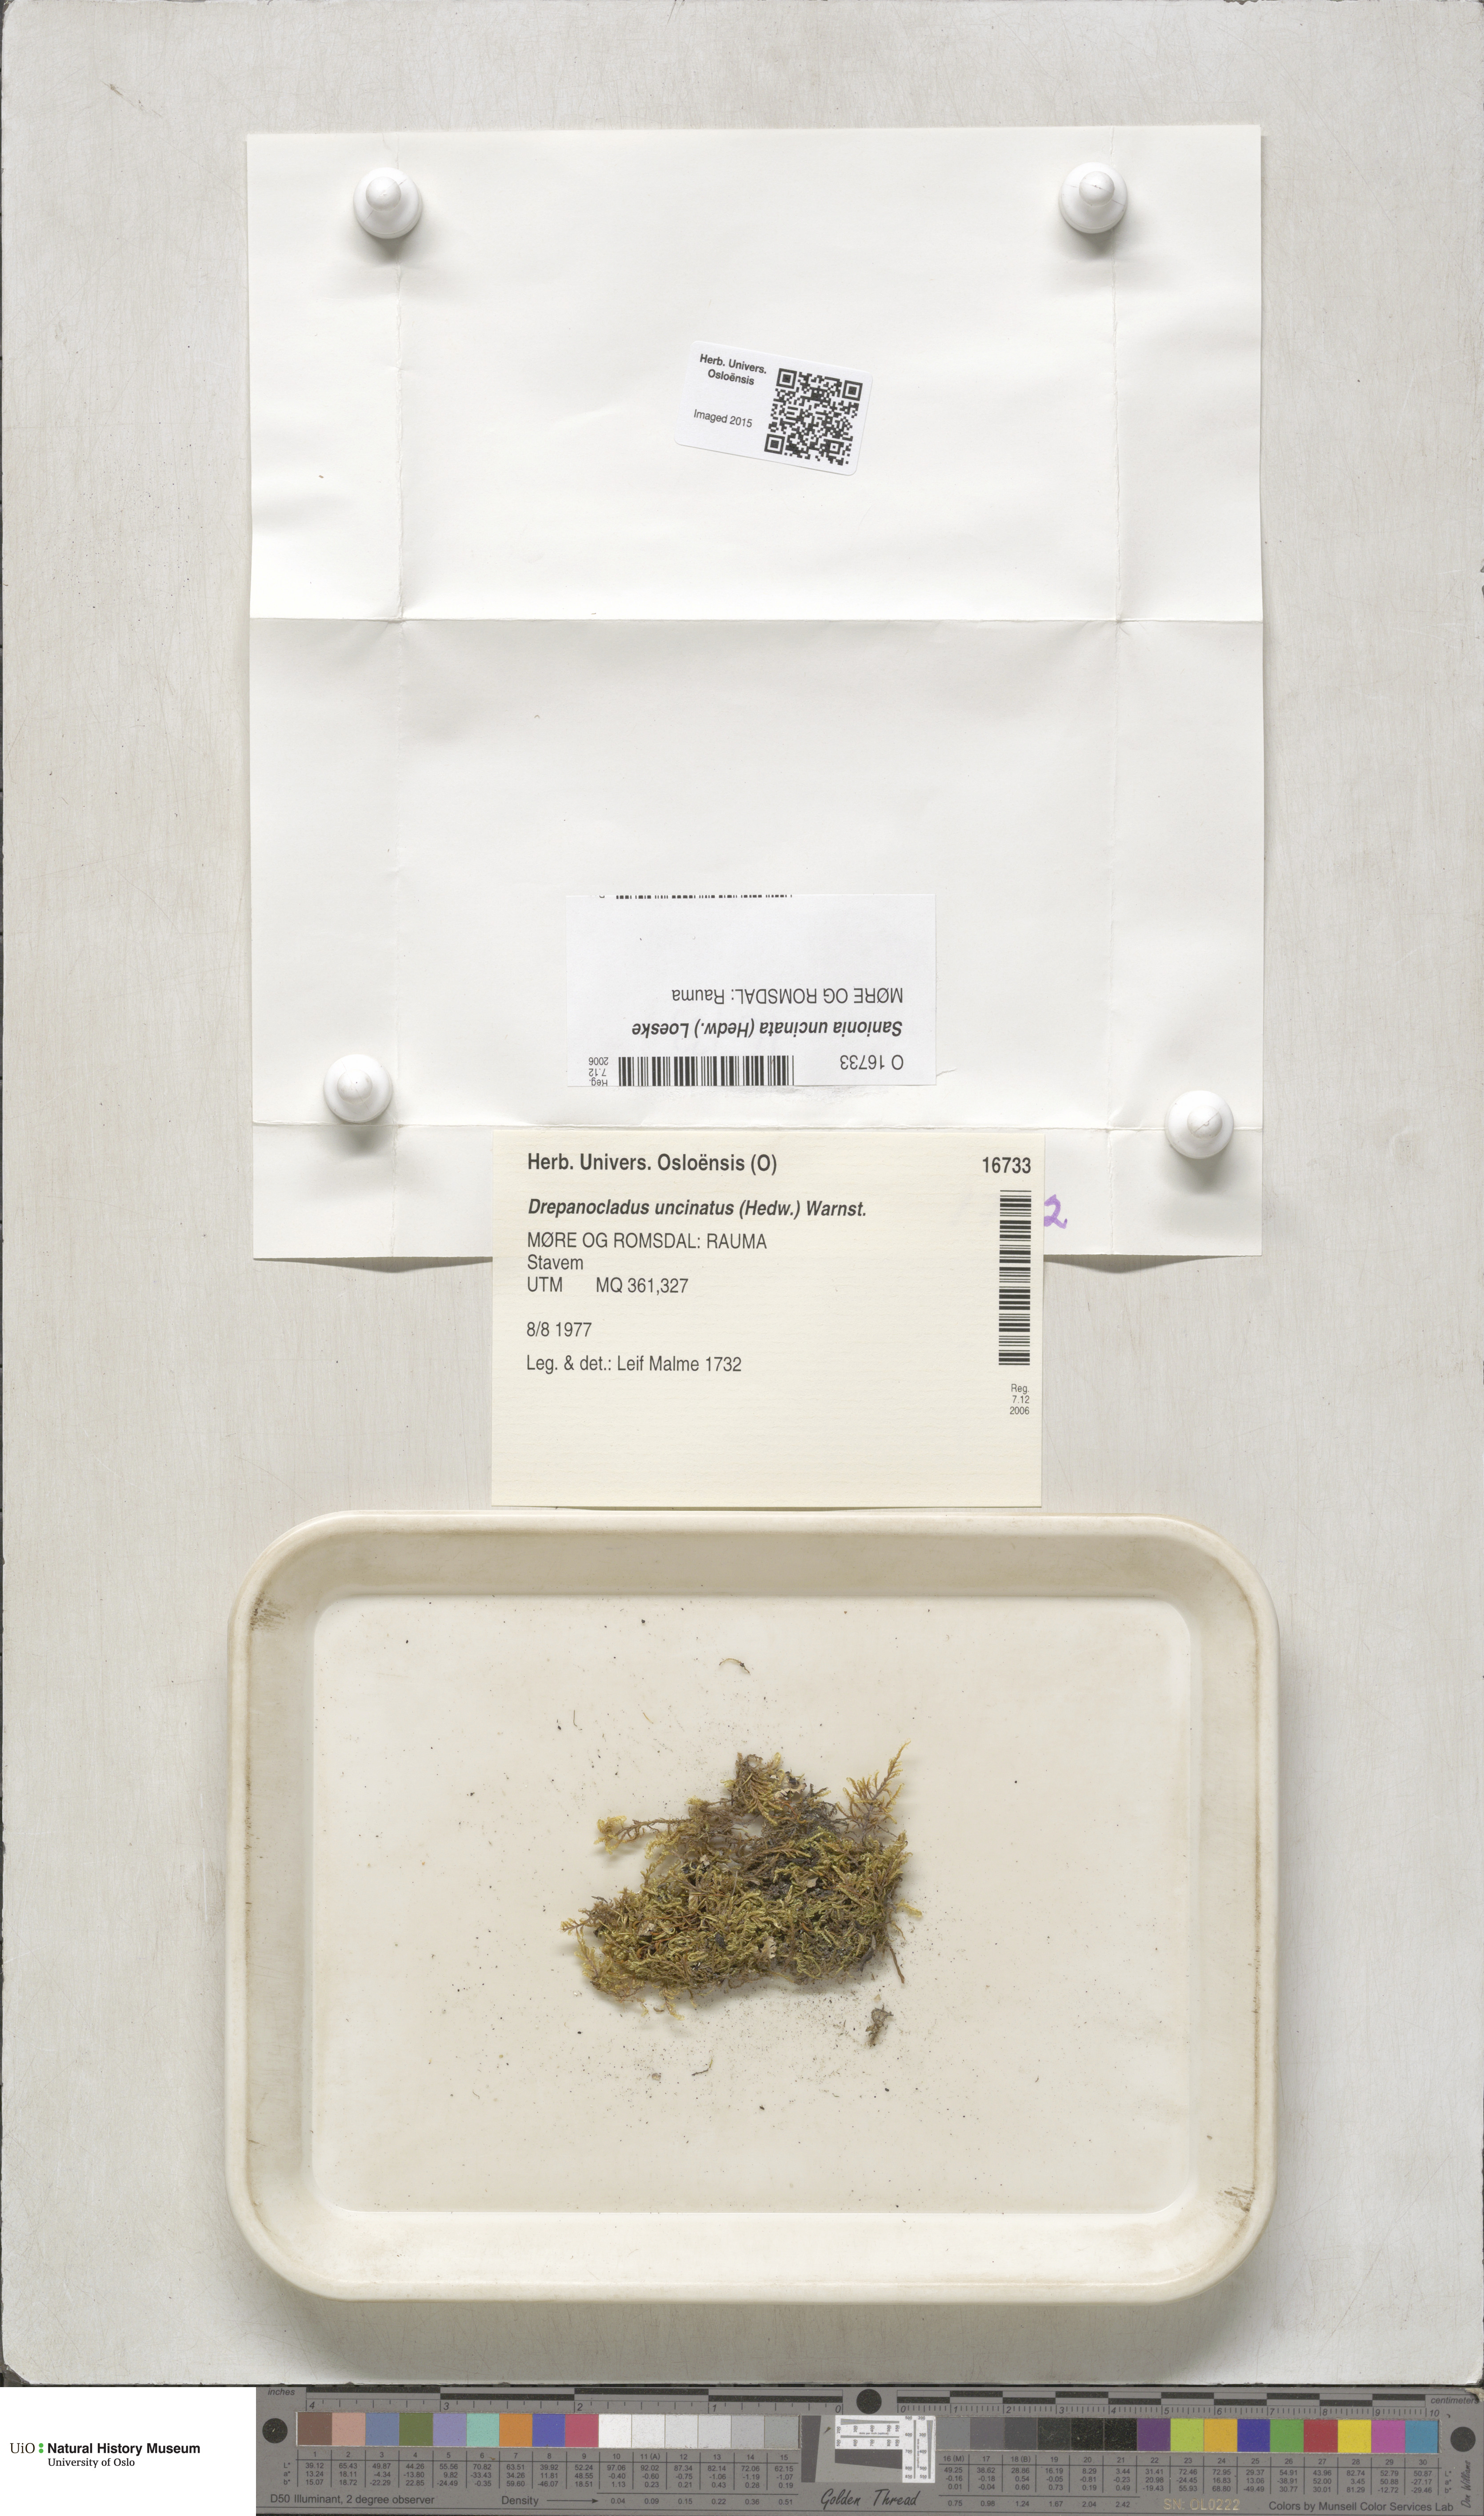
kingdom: Plantae
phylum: Bryophyta
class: Bryopsida
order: Hypnales
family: Scorpidiaceae
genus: Sanionia
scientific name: Sanionia uncinata
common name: Sickle moss
